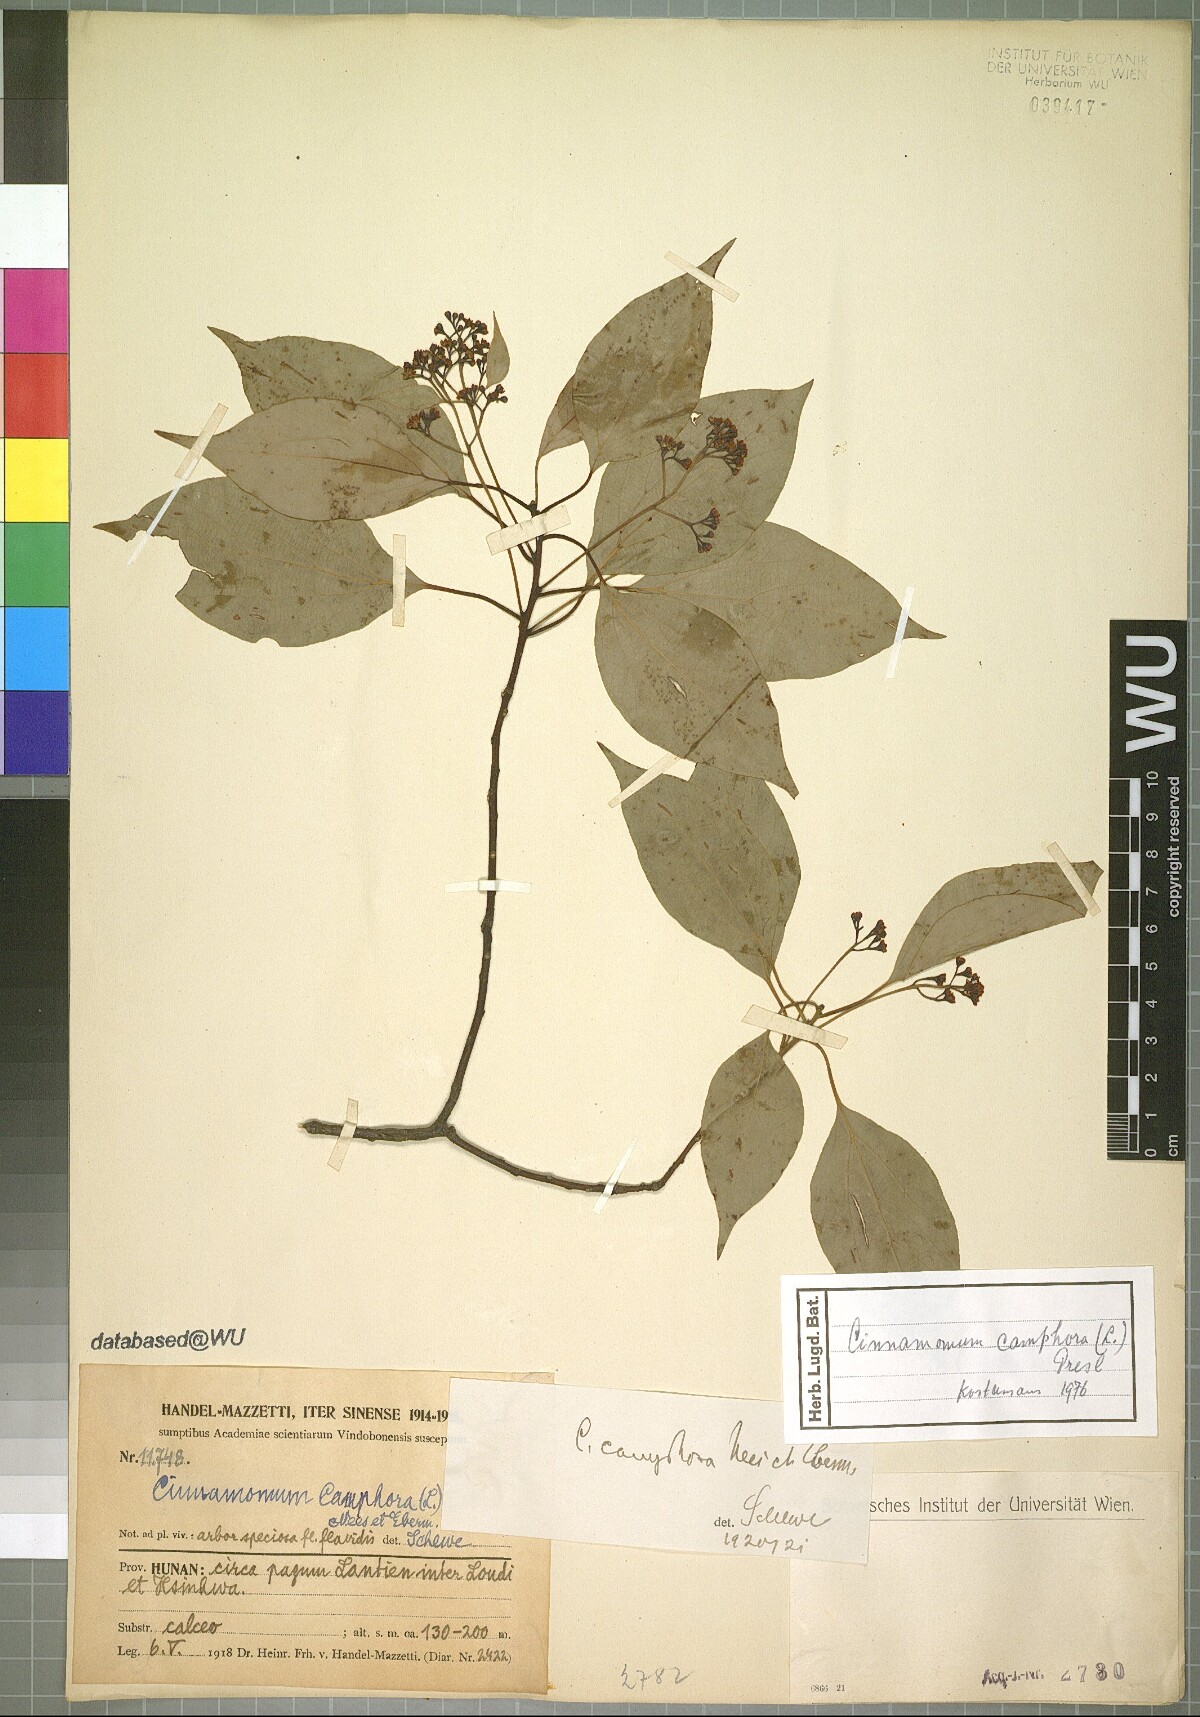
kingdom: Plantae
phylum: Tracheophyta
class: Magnoliopsida
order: Laurales
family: Lauraceae
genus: Cinnamomum
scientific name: Cinnamomum camphora
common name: Camphortree
